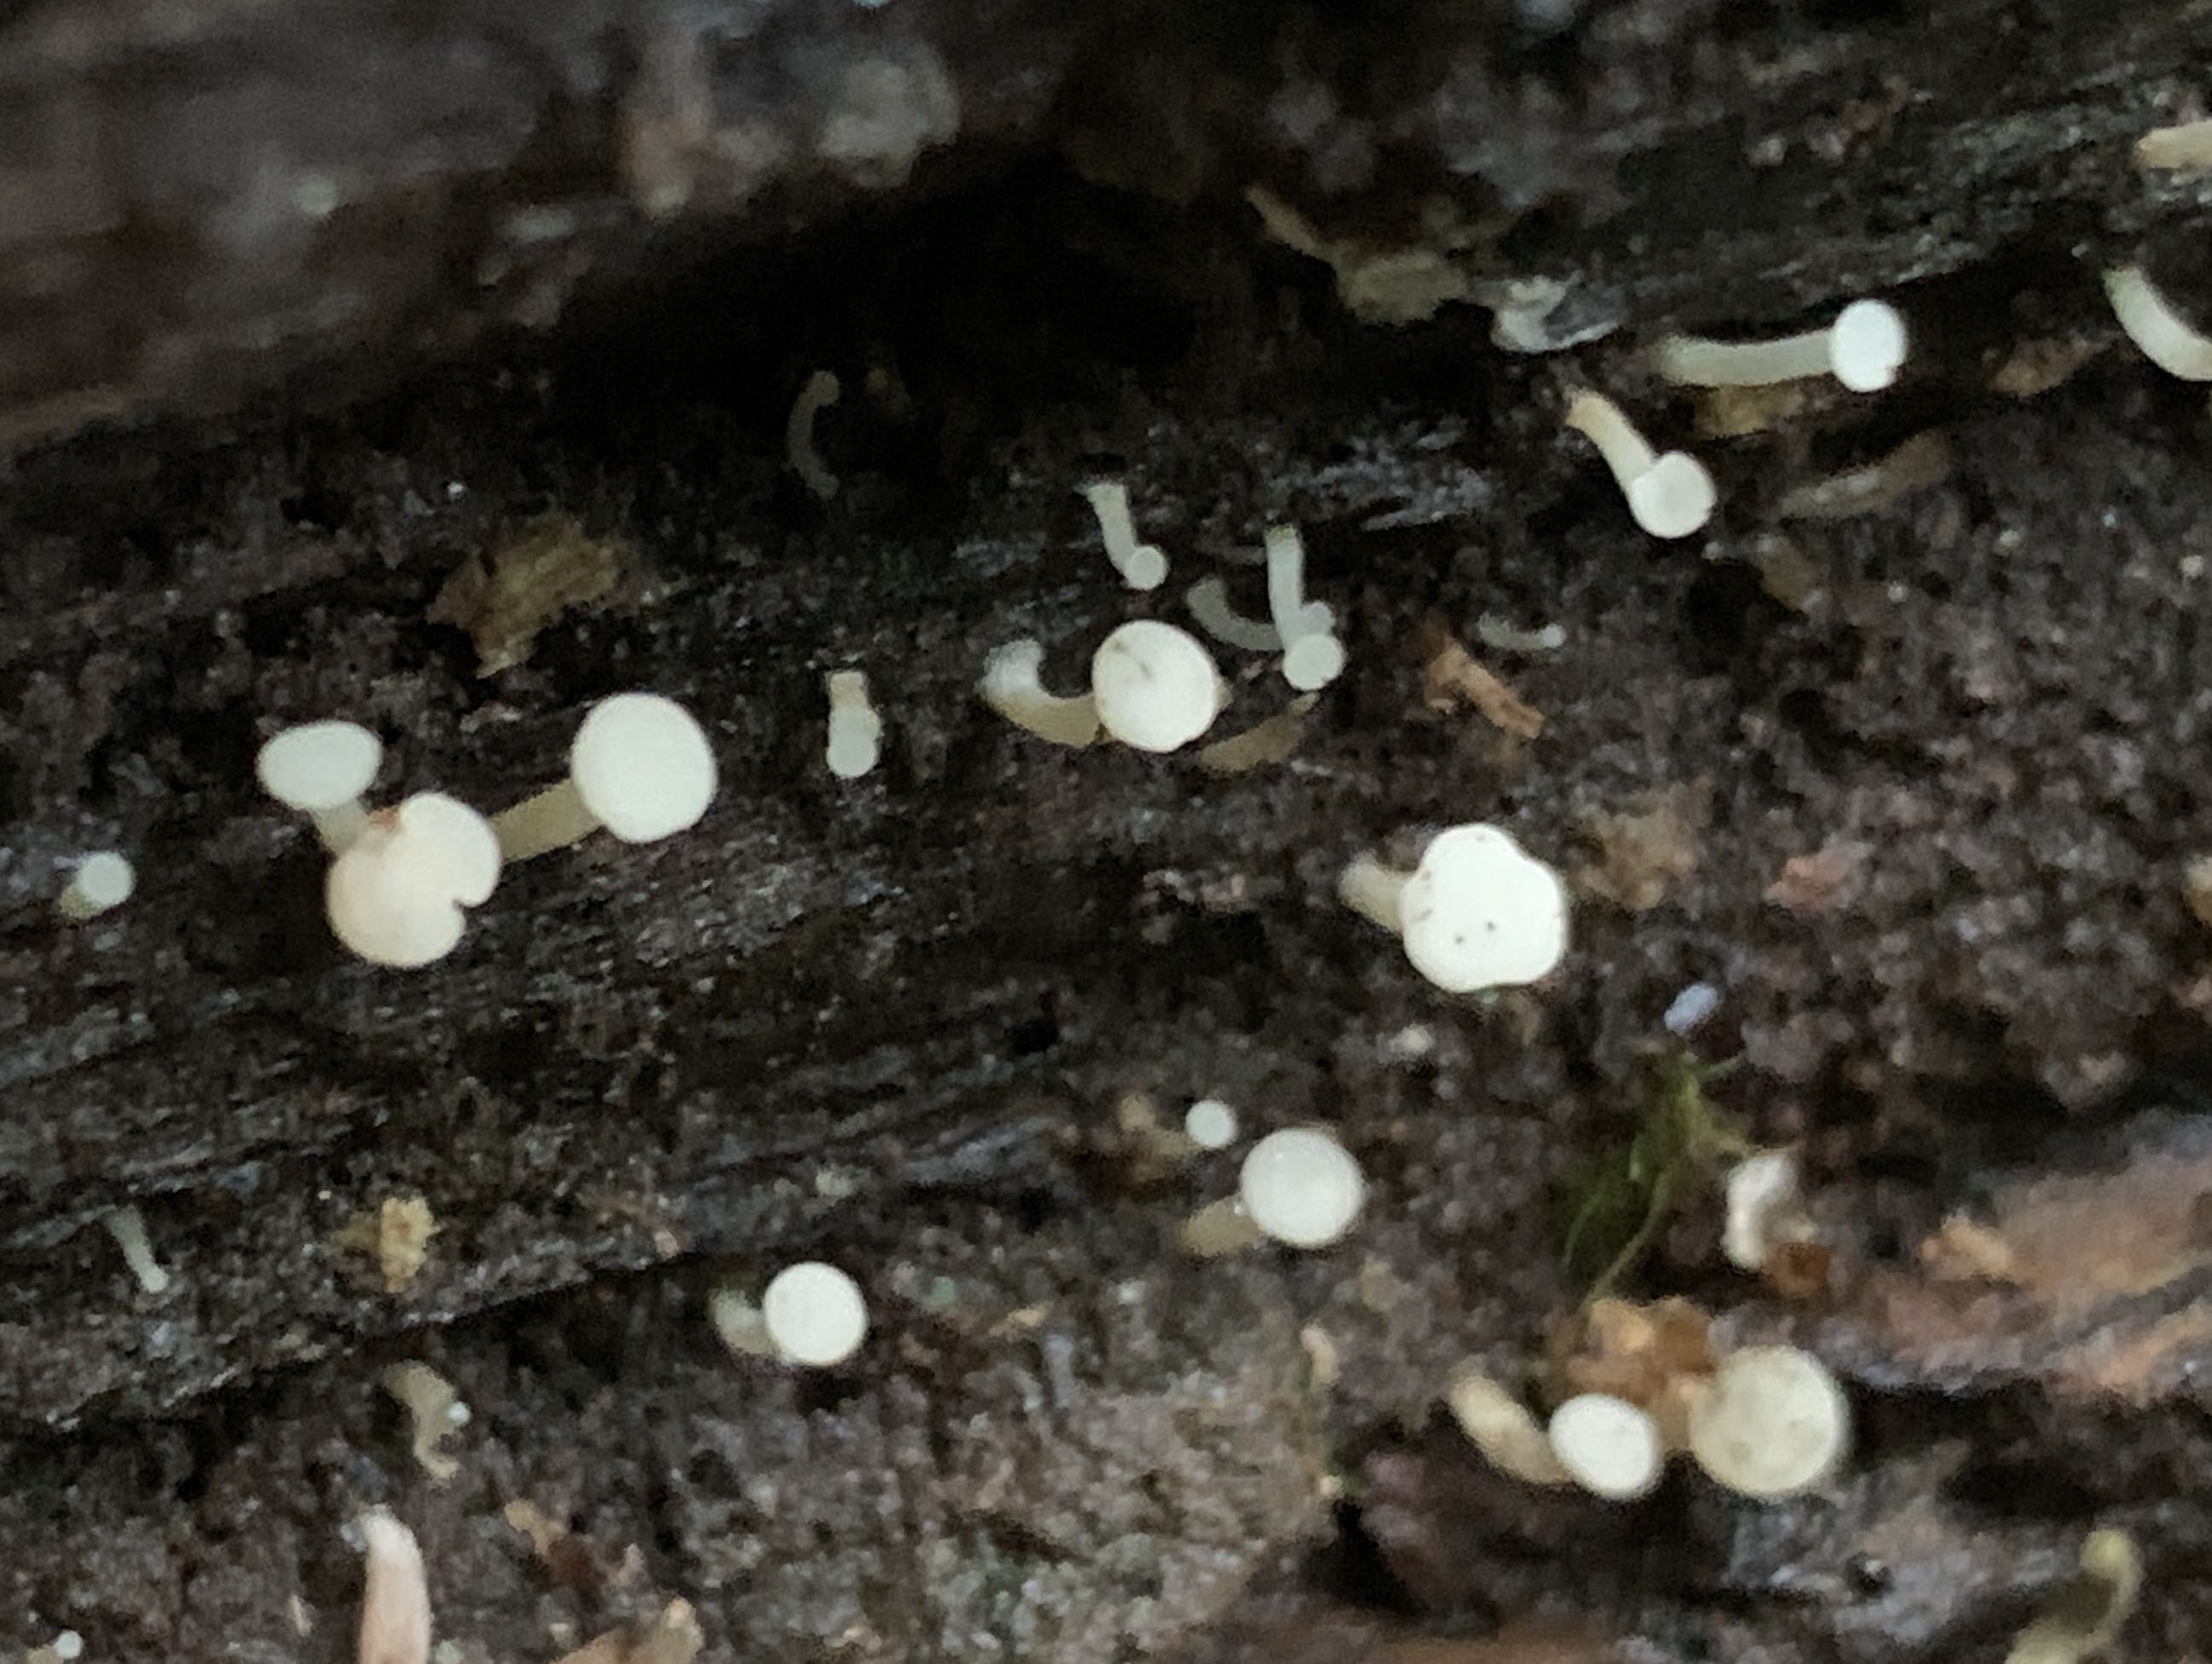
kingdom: Fungi
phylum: Ascomycota
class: Leotiomycetes
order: Helotiales
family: Tricladiaceae
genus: Cudoniella
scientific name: Cudoniella acicularis
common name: ege-dyndskive
